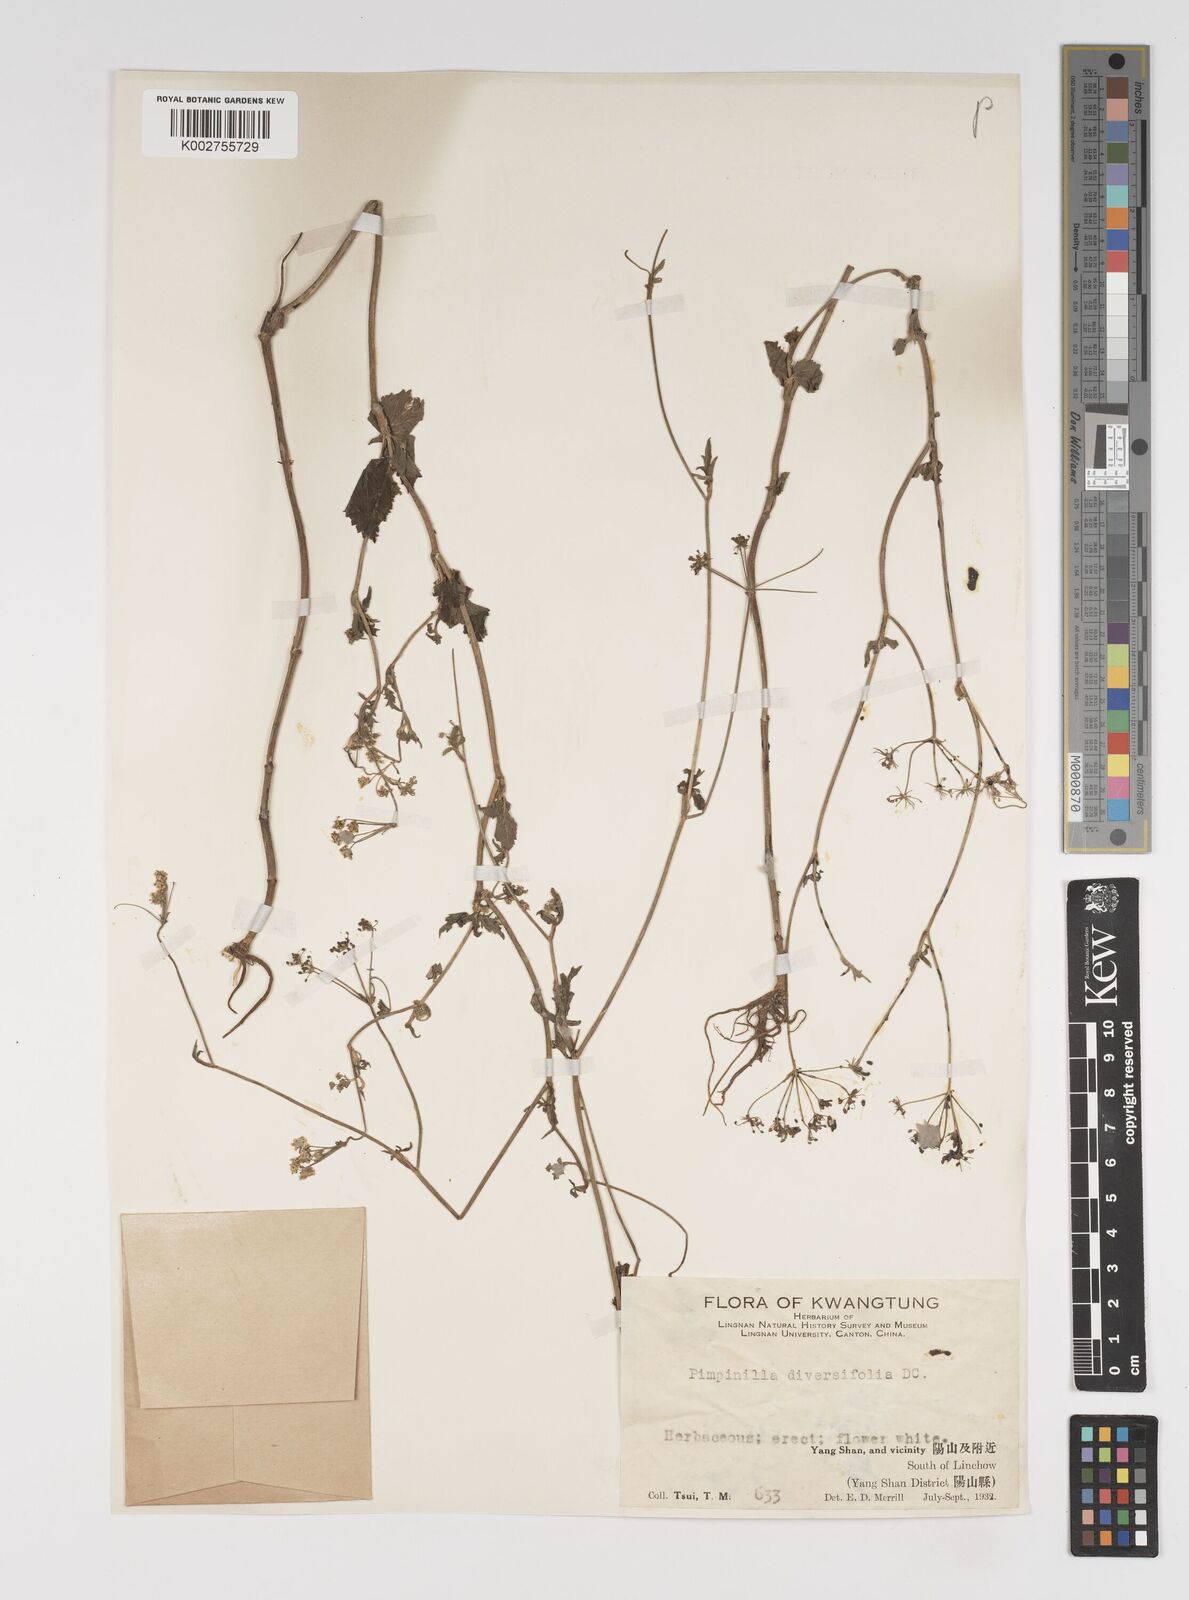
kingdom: Plantae
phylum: Tracheophyta
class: Magnoliopsida
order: Apiales
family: Apiaceae
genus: Pimpinella
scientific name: Pimpinella diversifolia
